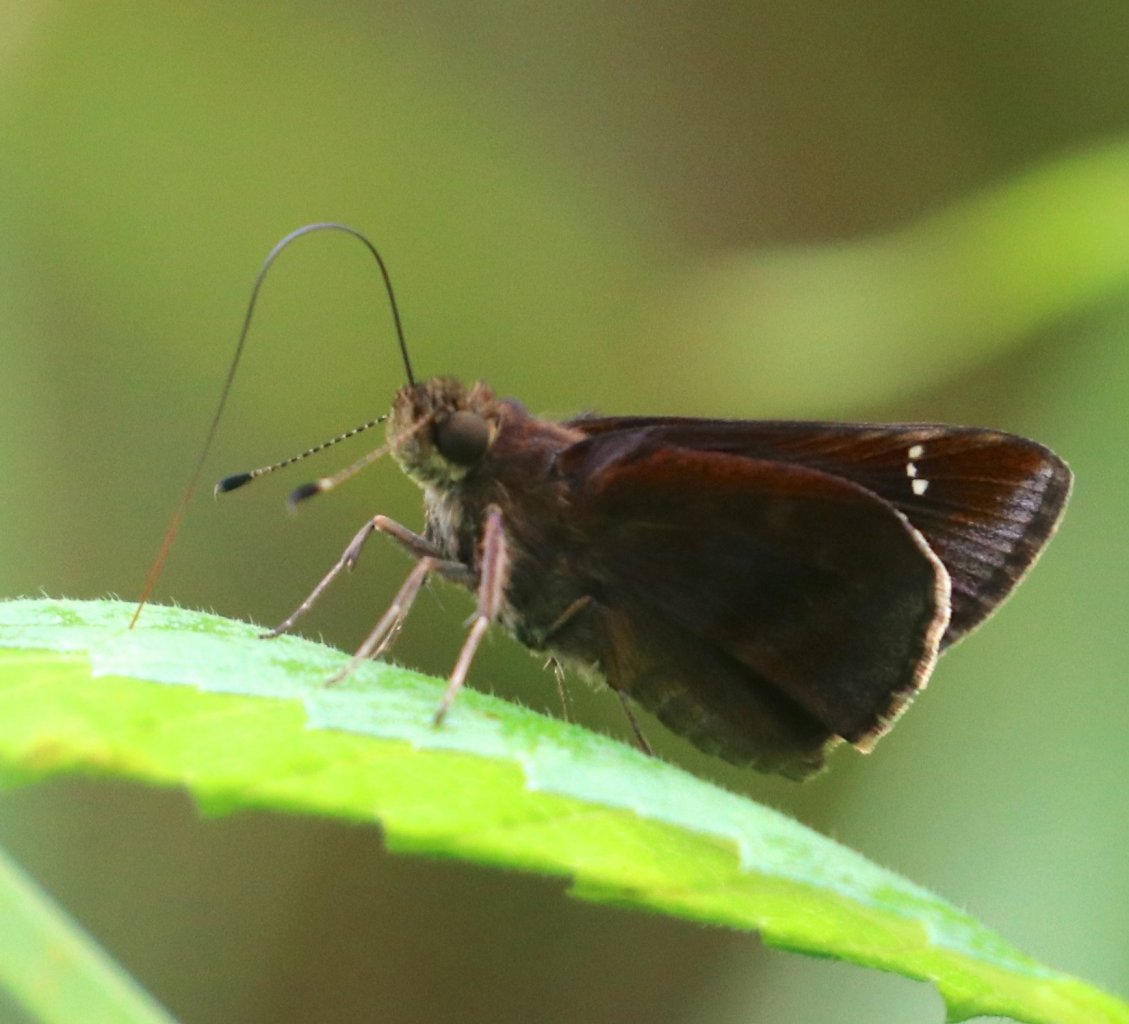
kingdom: Animalia
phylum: Arthropoda
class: Insecta
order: Lepidoptera
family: Hesperiidae
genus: Lerema
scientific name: Lerema accius
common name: Clouded Skipper
